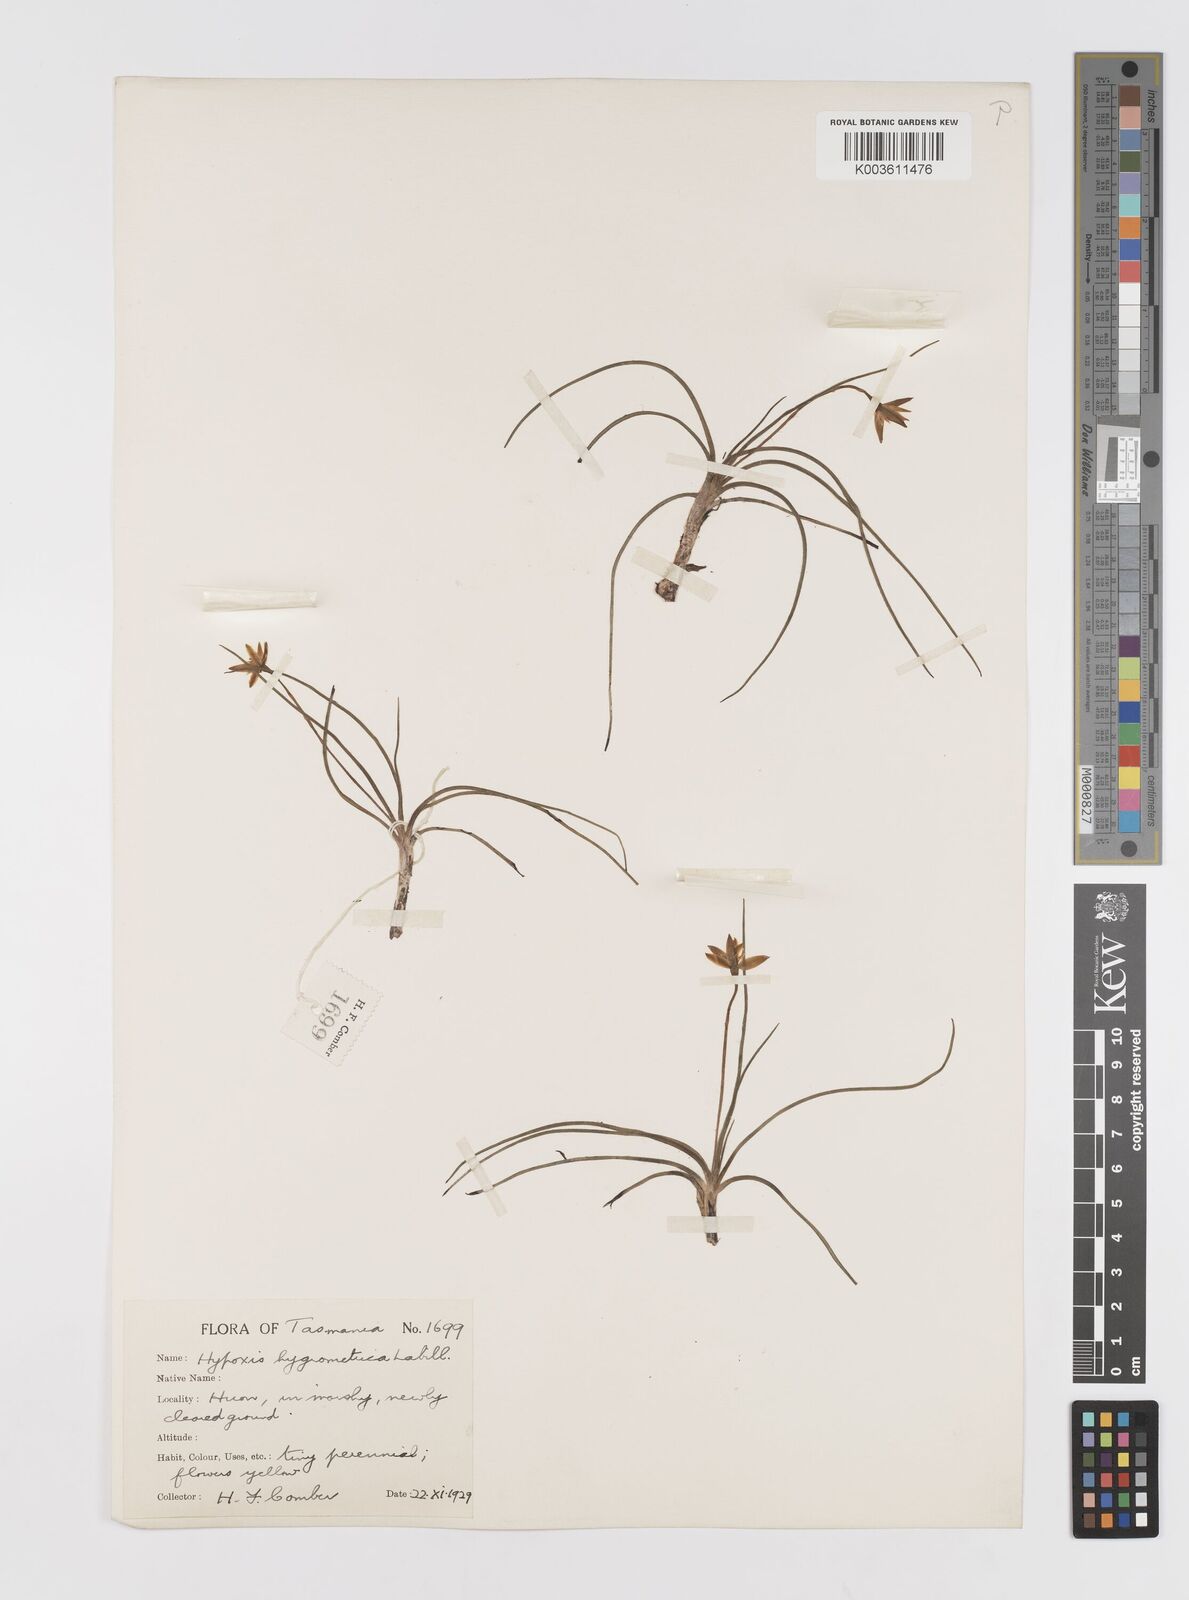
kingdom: Plantae
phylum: Tracheophyta
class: Liliopsida
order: Asparagales
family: Hypoxidaceae
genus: Hypoxis
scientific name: Hypoxis hygrometrica
